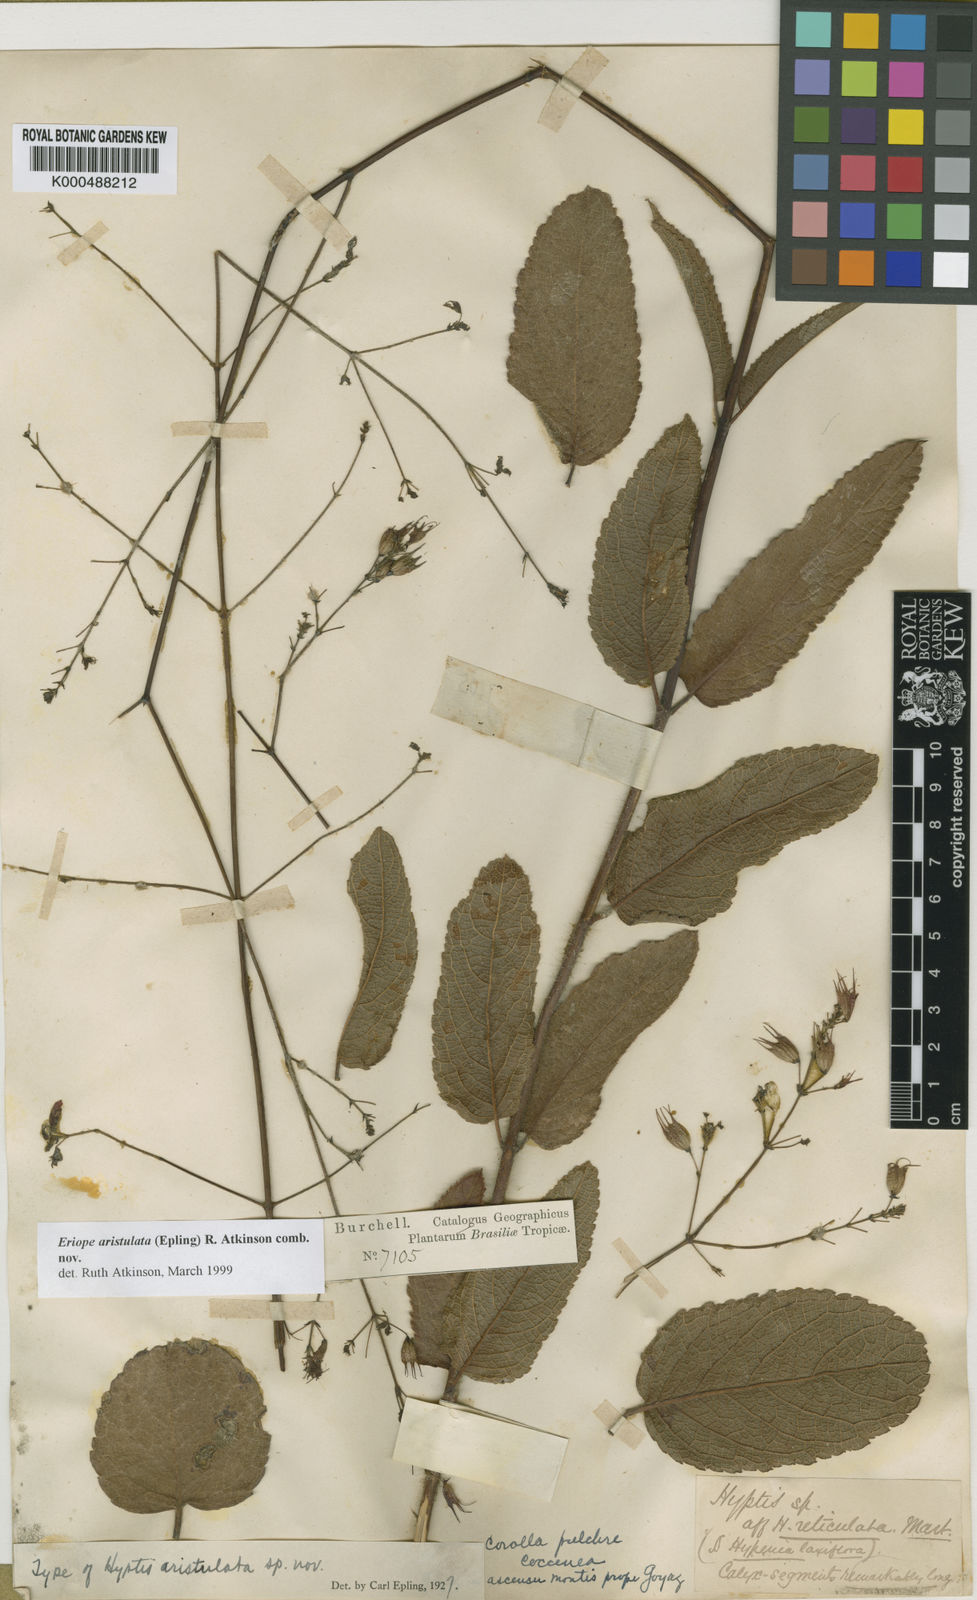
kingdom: Plantae
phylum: Tracheophyta
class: Magnoliopsida
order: Lamiales
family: Lamiaceae
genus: Hypenia
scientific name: Hypenia aristulata
